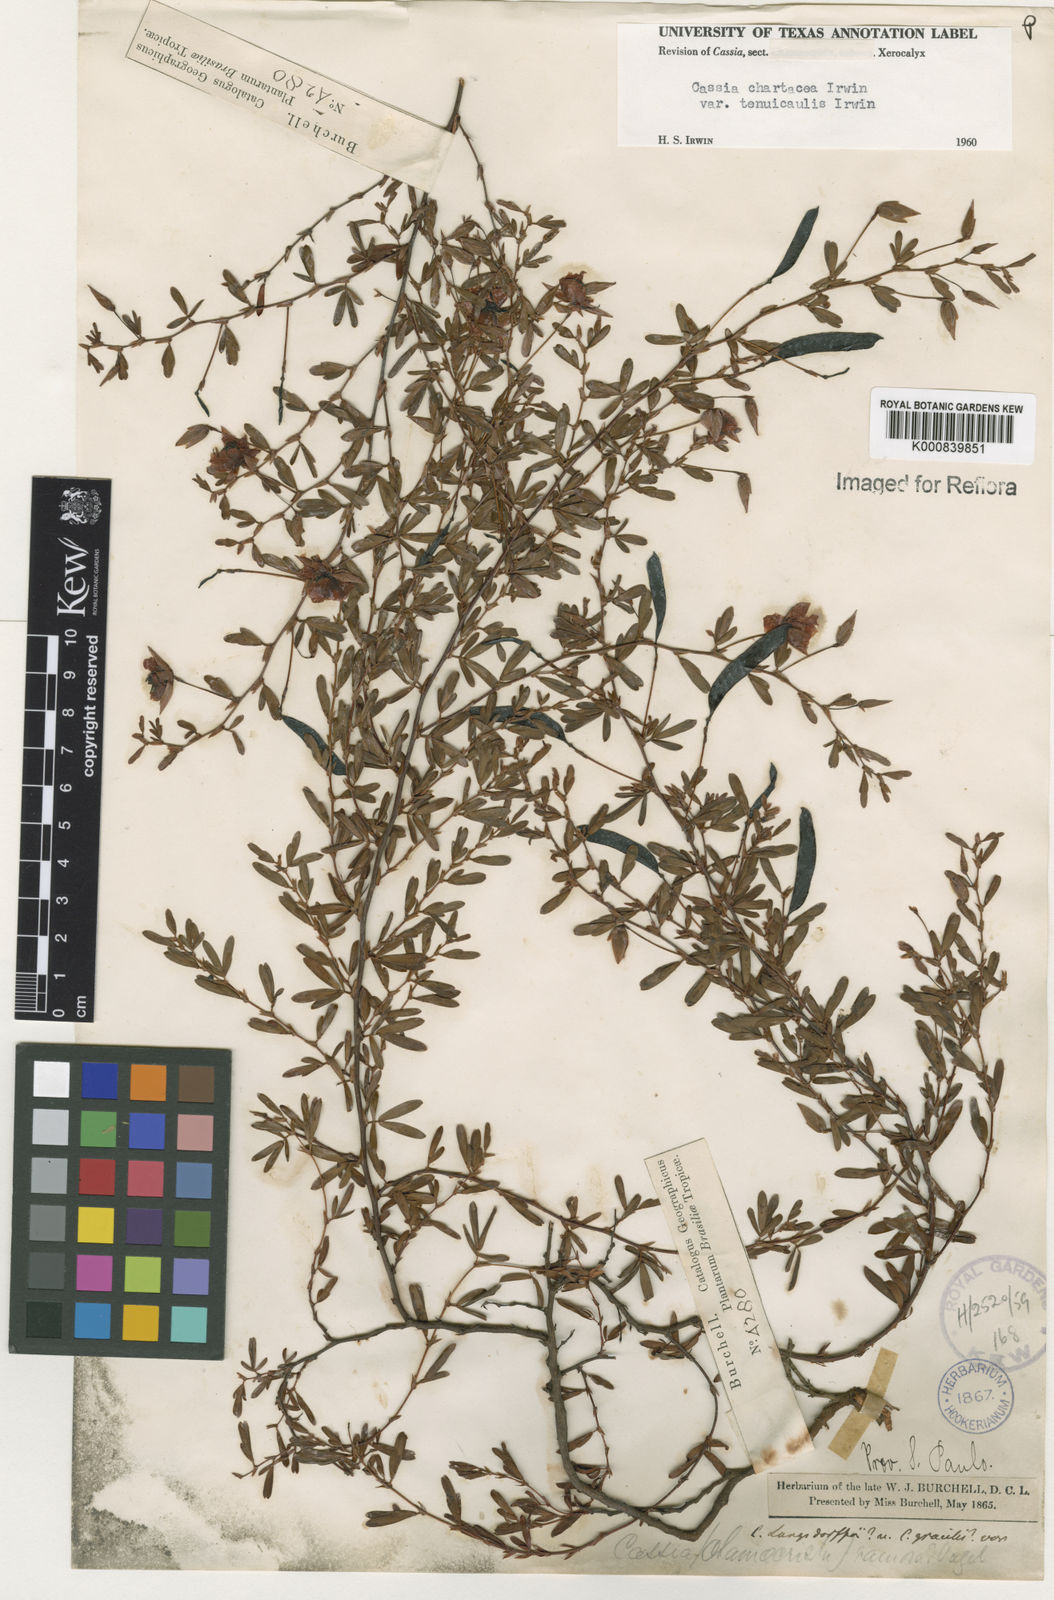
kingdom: Plantae
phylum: Tracheophyta
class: Magnoliopsida
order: Fabales
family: Fabaceae
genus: Chamaecrista
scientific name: Chamaecrista ramosa
